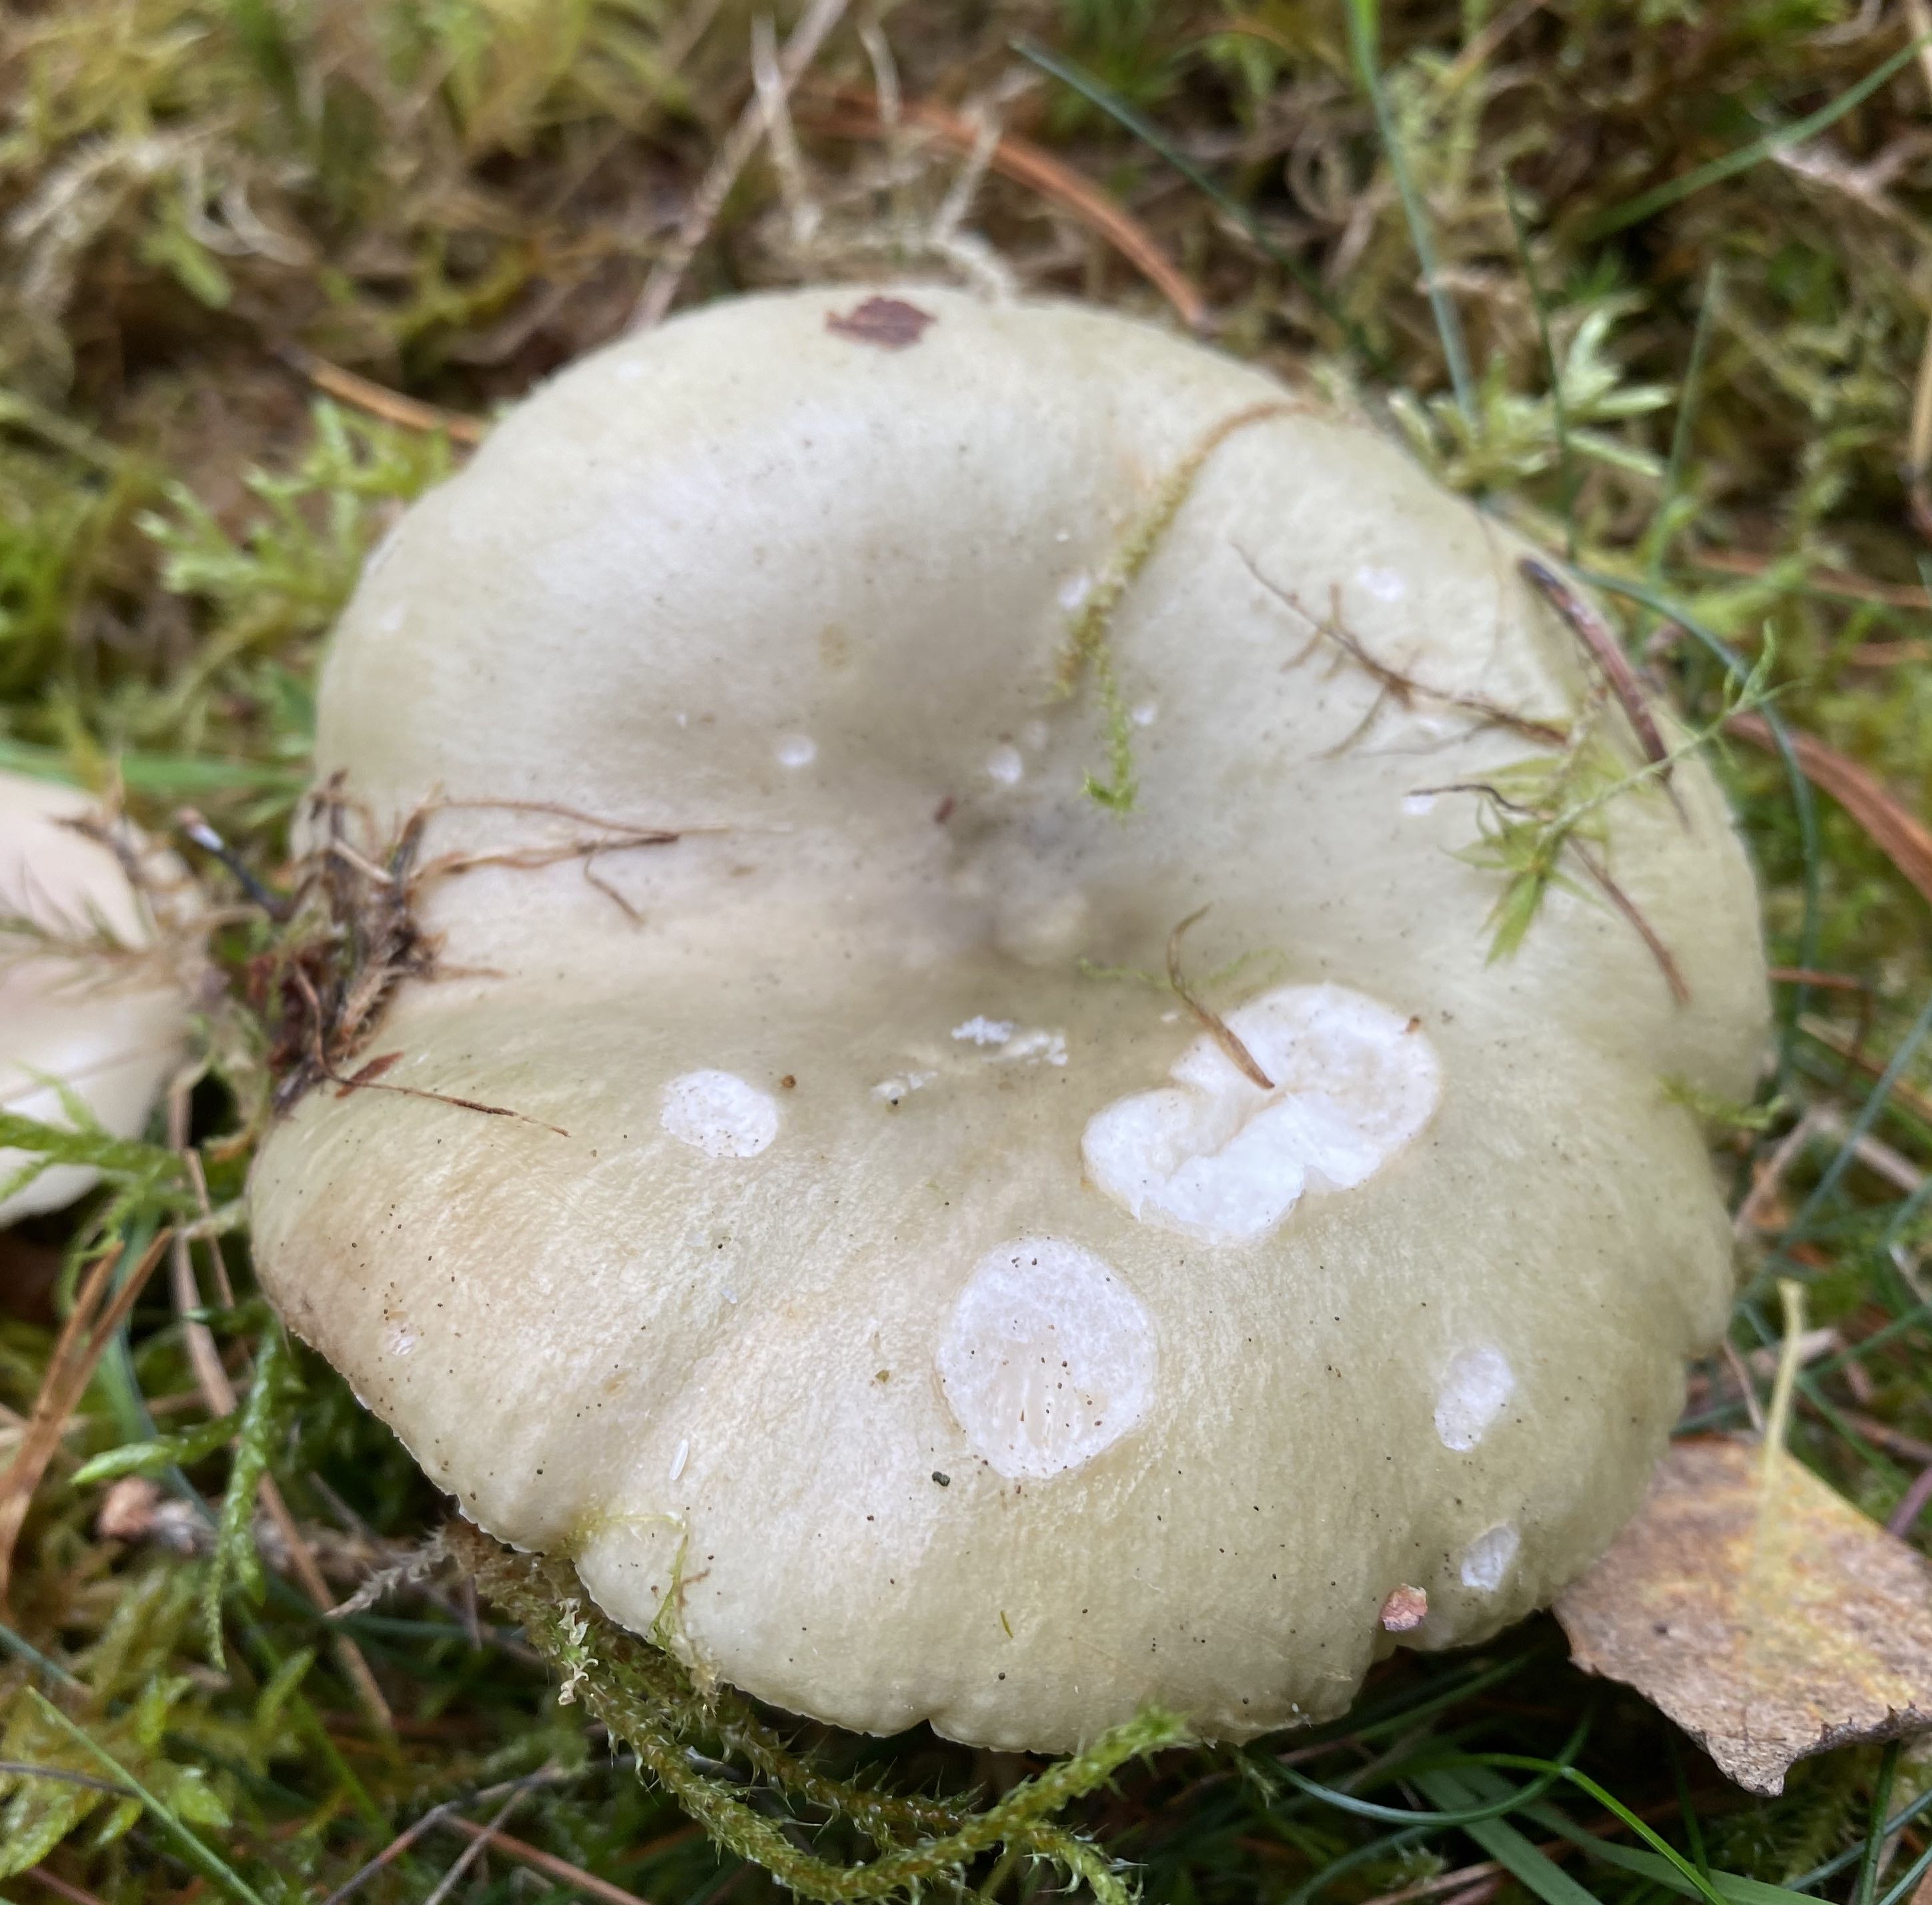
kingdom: Fungi
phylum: Basidiomycota
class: Agaricomycetes
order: Russulales
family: Russulaceae
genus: Russula
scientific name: Russula aeruginea
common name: græsgrøn skørhat
